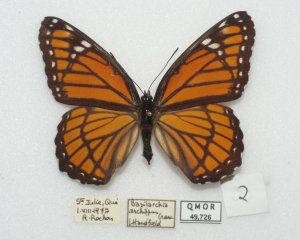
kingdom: Animalia
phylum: Arthropoda
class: Insecta
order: Lepidoptera
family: Nymphalidae
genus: Limenitis
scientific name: Limenitis archippus
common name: Viceroy
